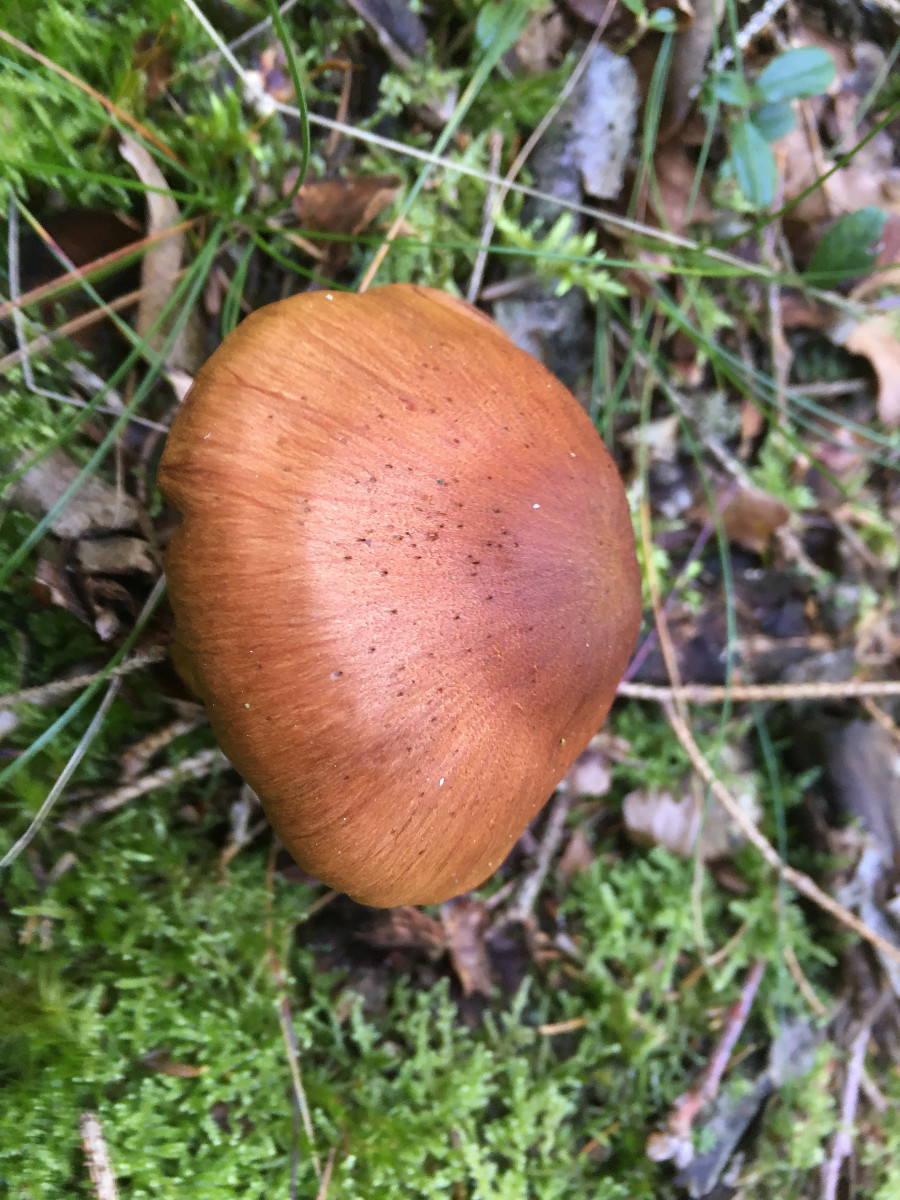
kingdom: Fungi
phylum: Basidiomycota
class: Agaricomycetes
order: Agaricales
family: Cortinariaceae
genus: Cortinarius
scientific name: Cortinarius
